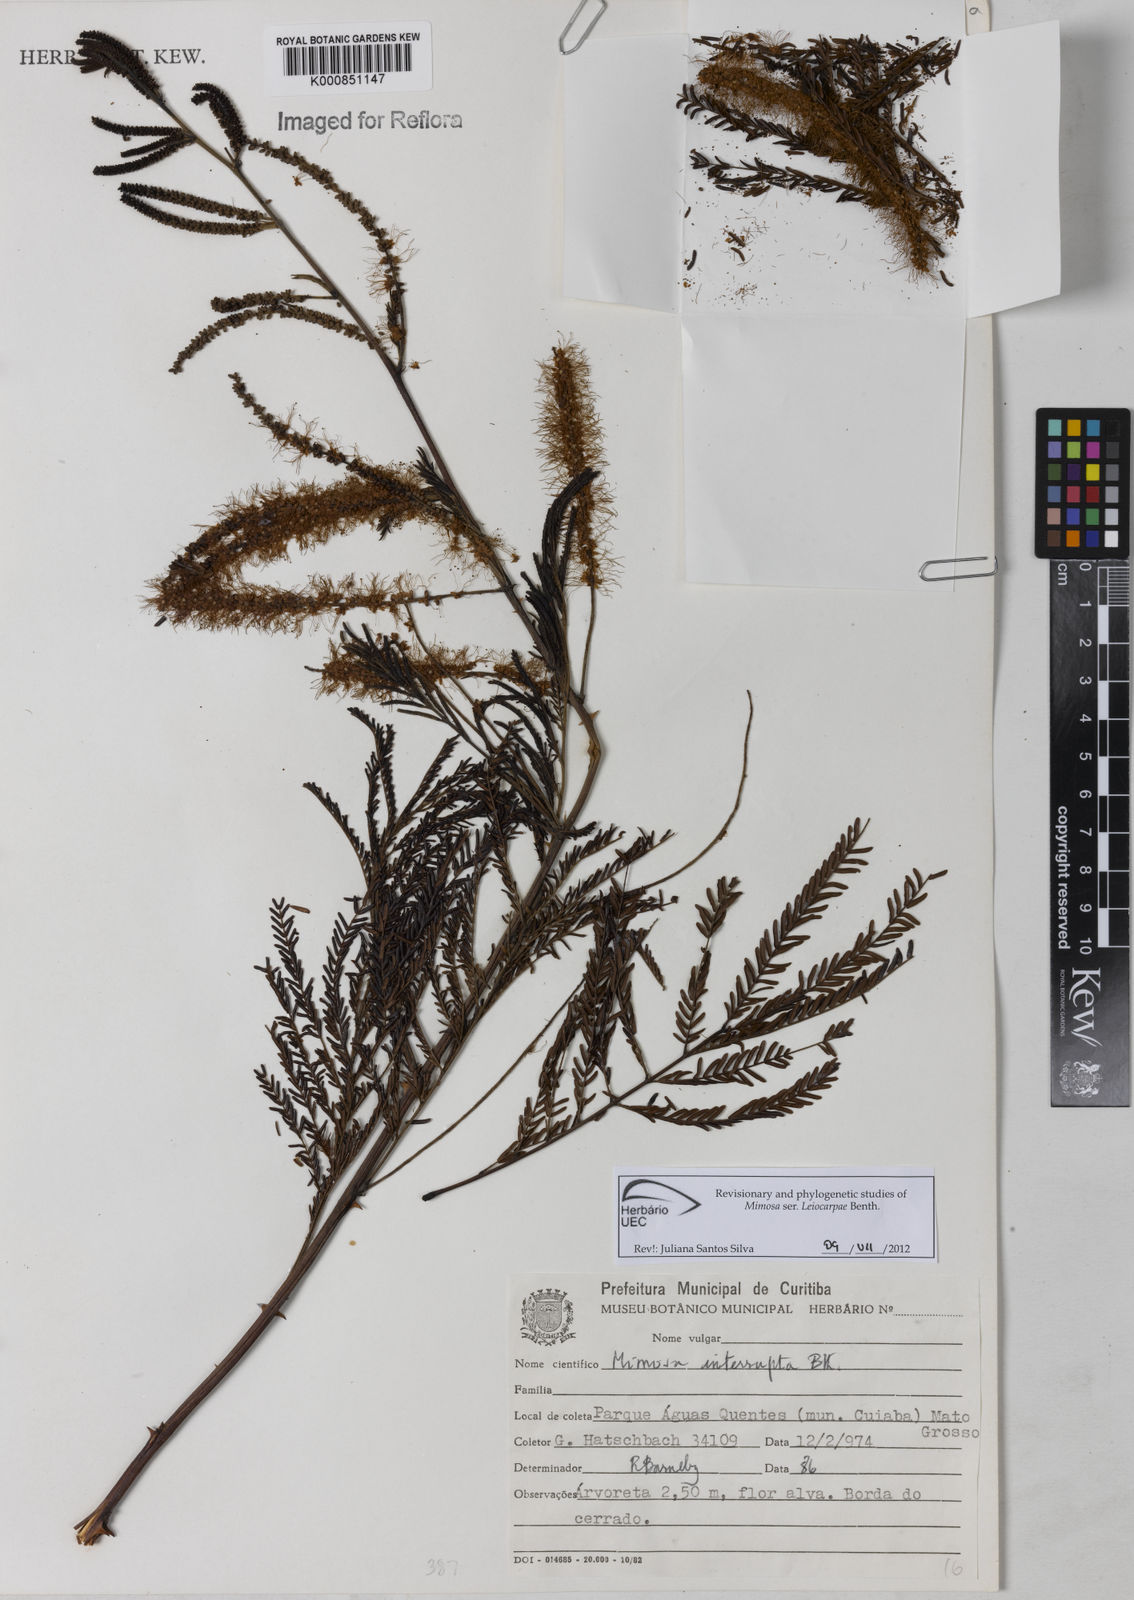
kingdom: Plantae
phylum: Tracheophyta
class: Magnoliopsida
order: Fabales
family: Fabaceae
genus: Mimosa
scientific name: Mimosa interrupta
